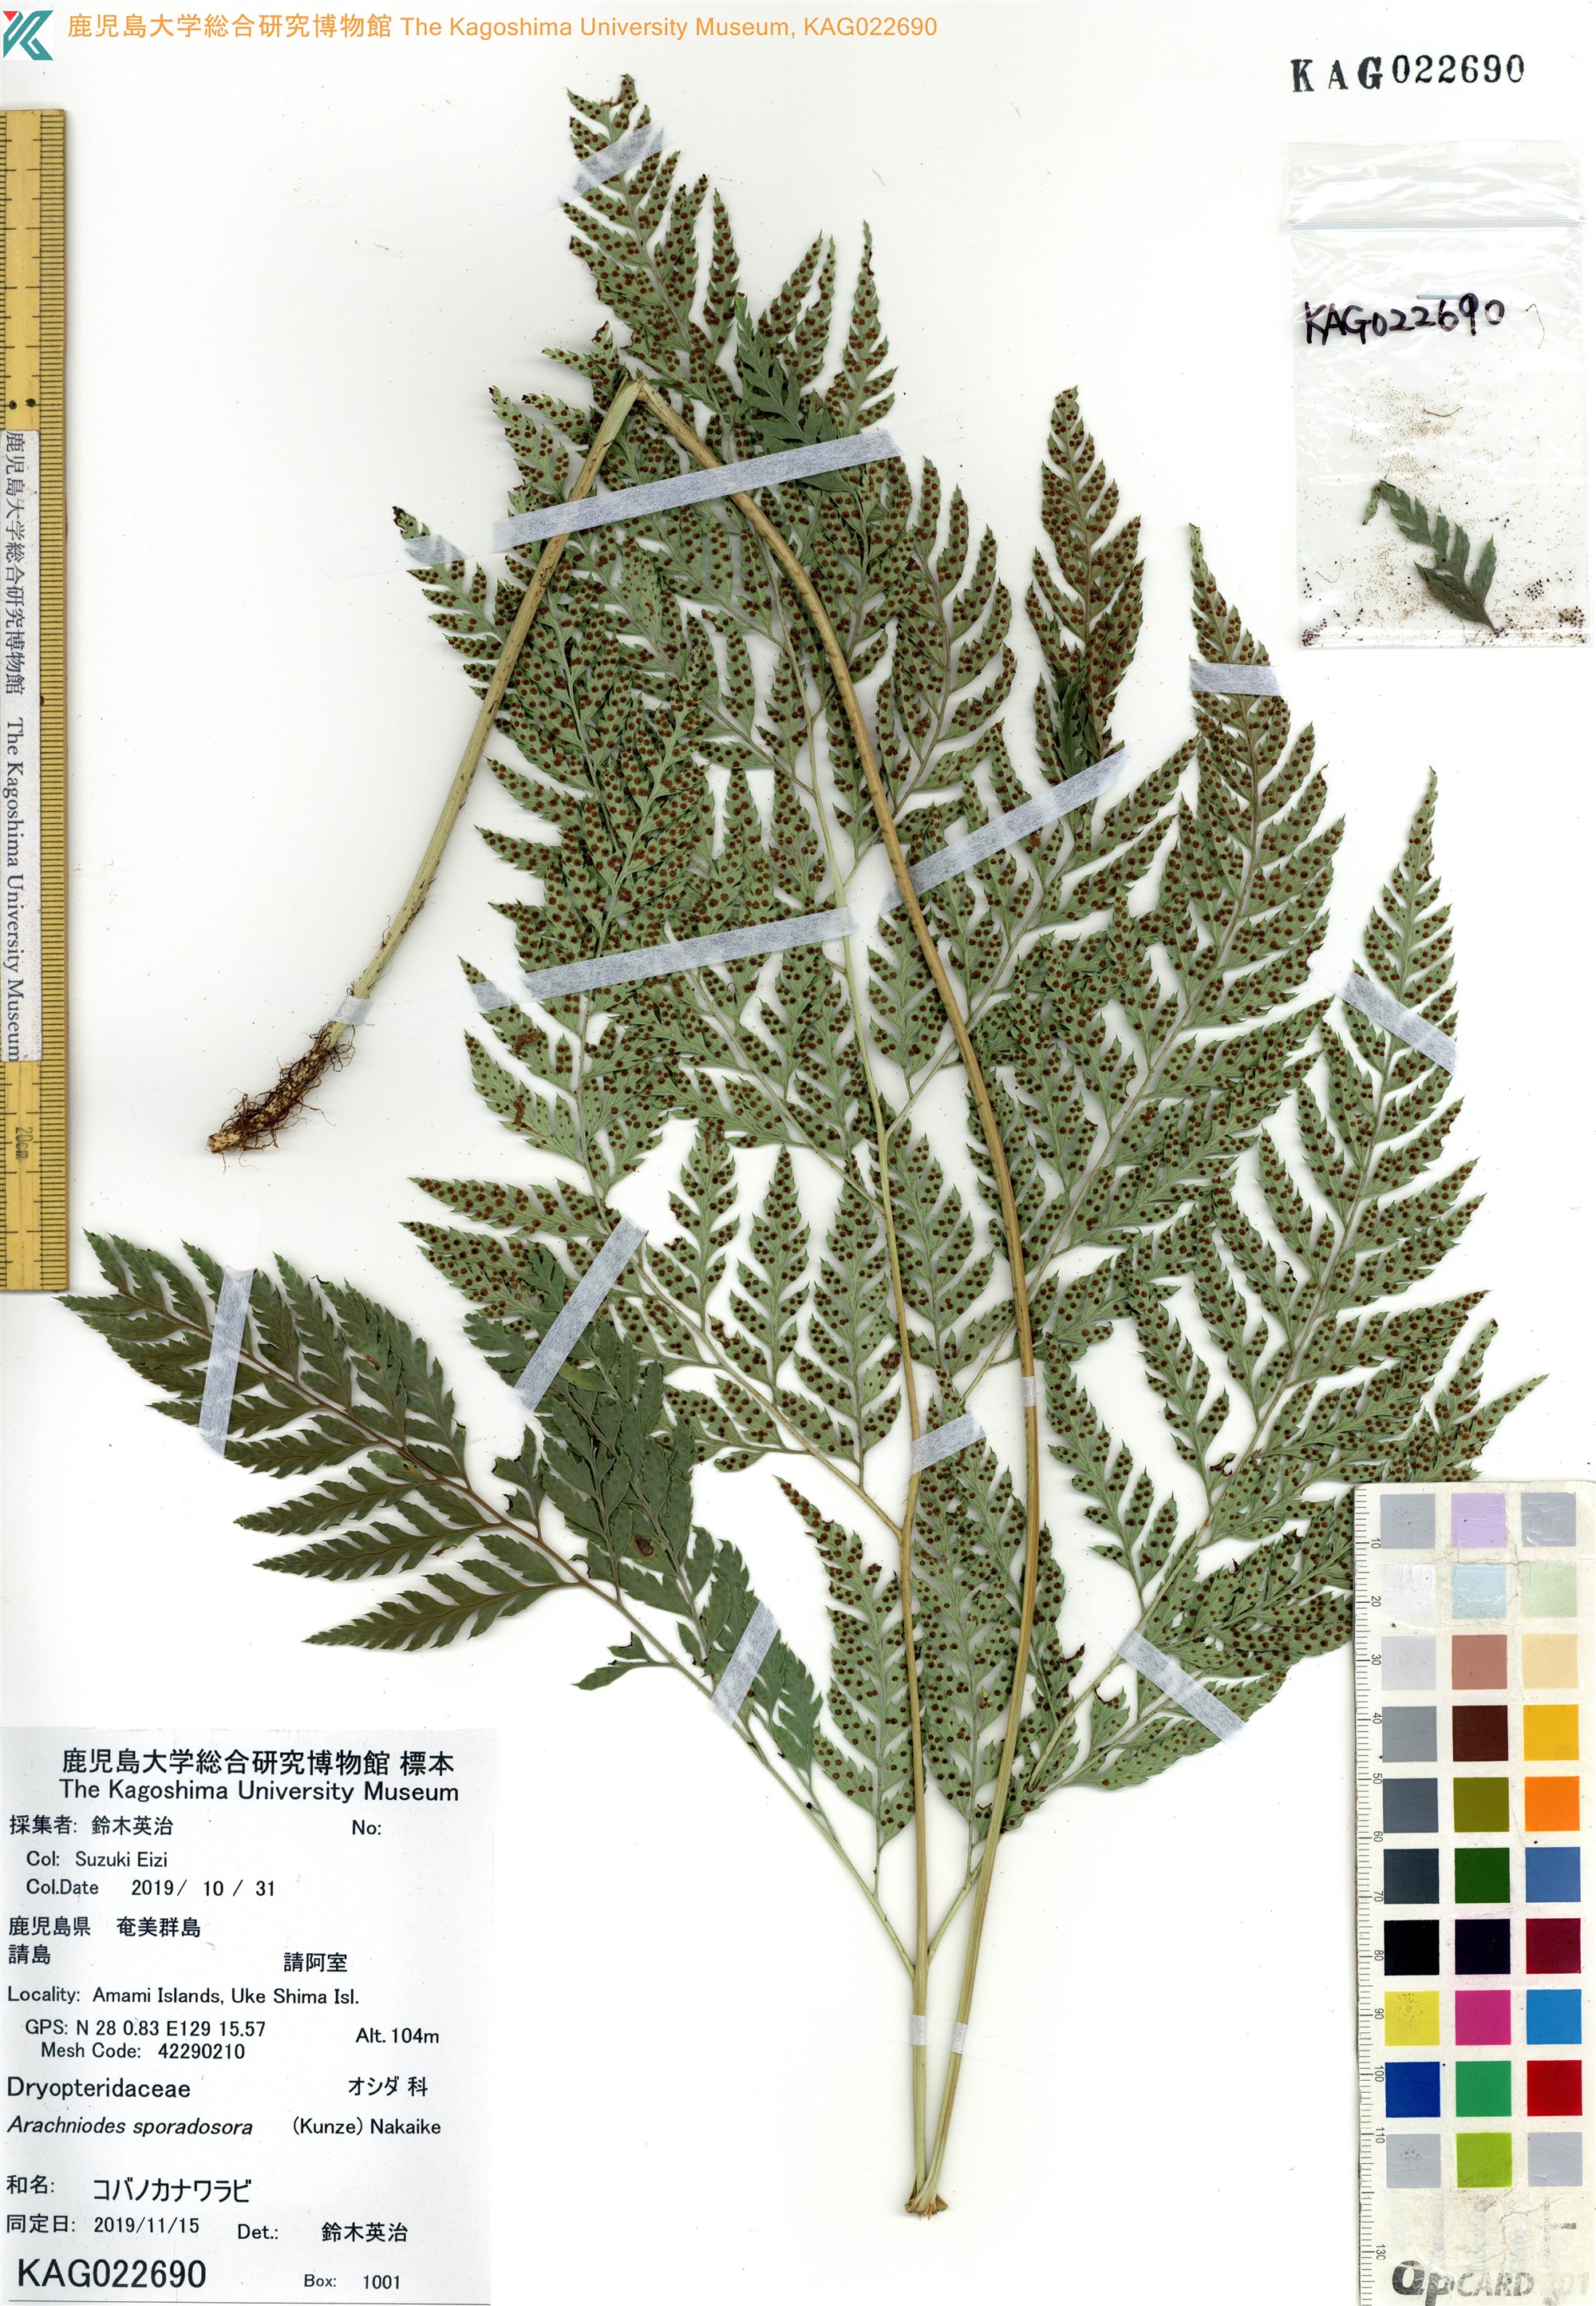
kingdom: Plantae
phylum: Tracheophyta
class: Polypodiopsida
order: Polypodiales
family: Dryopteridaceae
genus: Arachniodes
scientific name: Arachniodes cornu-cervi
